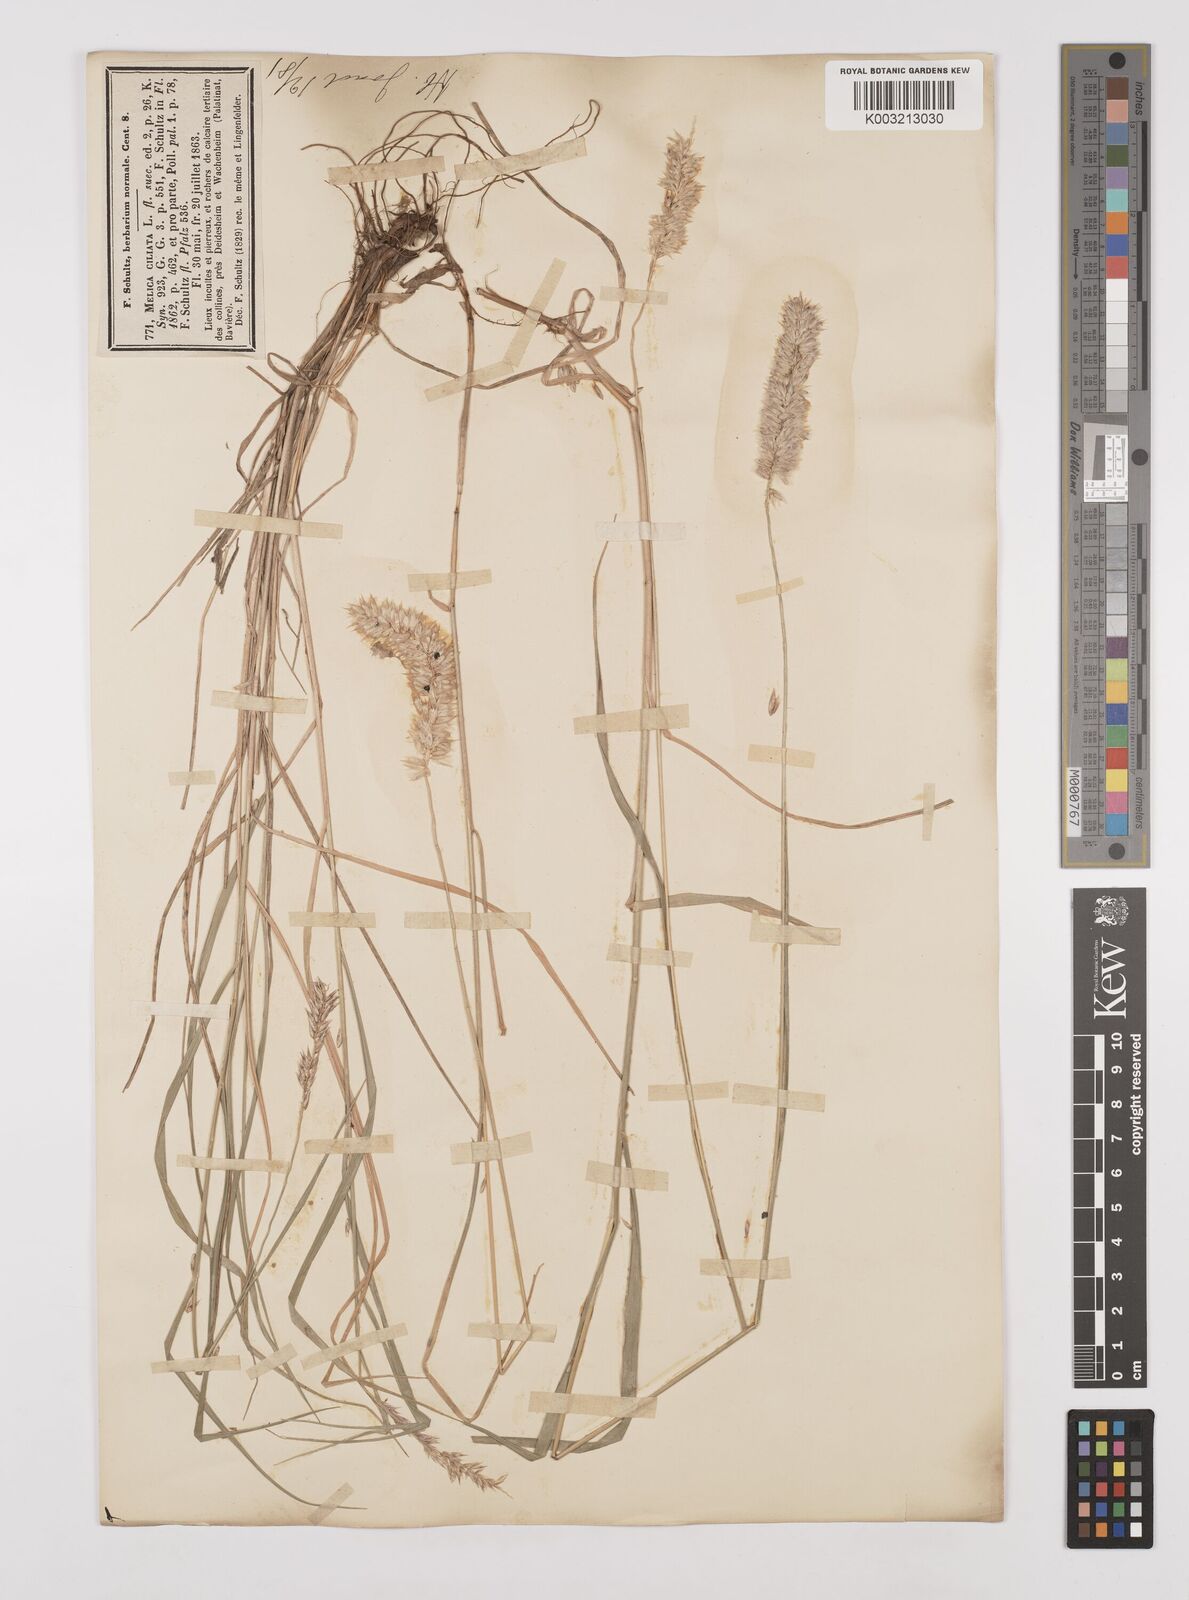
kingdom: Plantae
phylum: Tracheophyta
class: Liliopsida
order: Poales
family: Poaceae
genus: Melica
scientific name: Melica ciliata
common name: Hairy melicgrass
